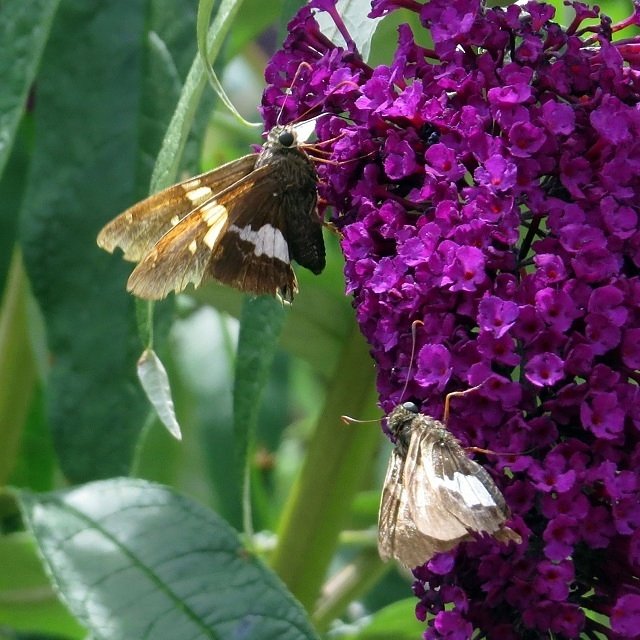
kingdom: Animalia
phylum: Arthropoda
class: Insecta
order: Lepidoptera
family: Hesperiidae
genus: Epargyreus
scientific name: Epargyreus clarus
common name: Silver-spotted Skipper
